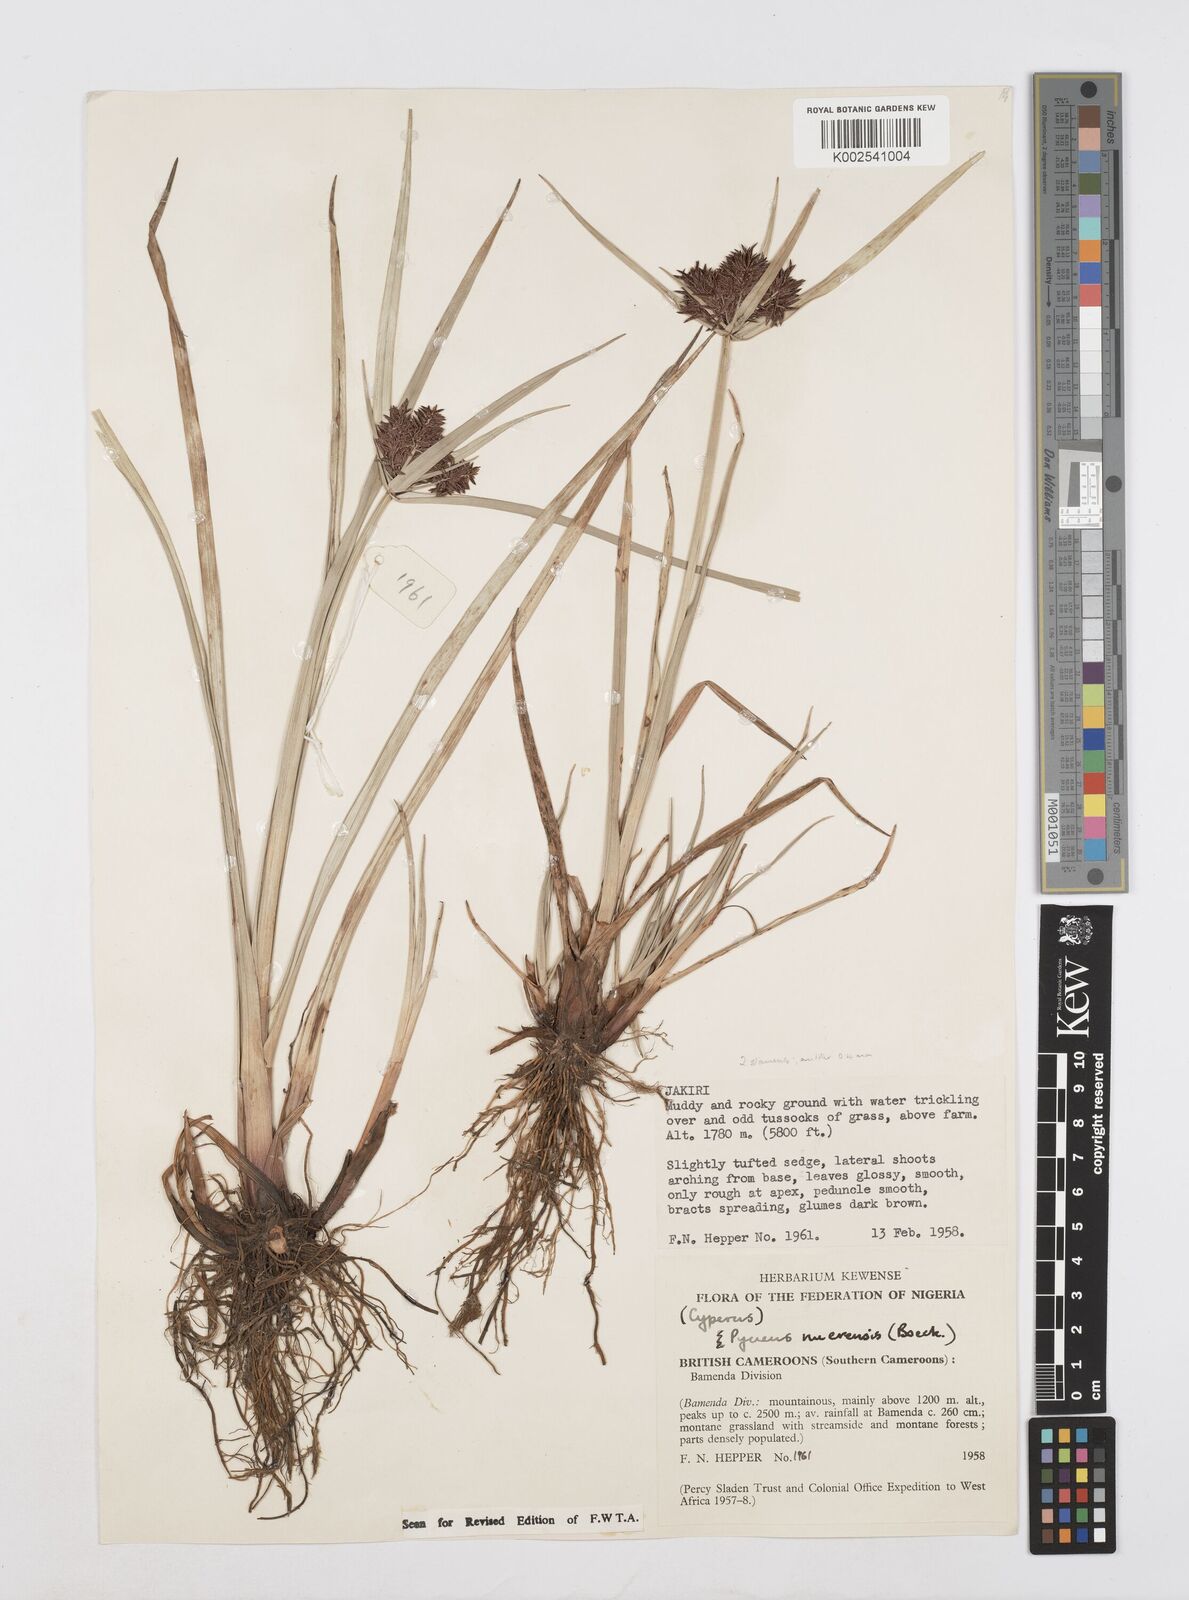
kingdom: Plantae
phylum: Tracheophyta
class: Liliopsida
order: Poales
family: Cyperaceae
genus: Cyperus
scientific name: Cyperus nuerensis
